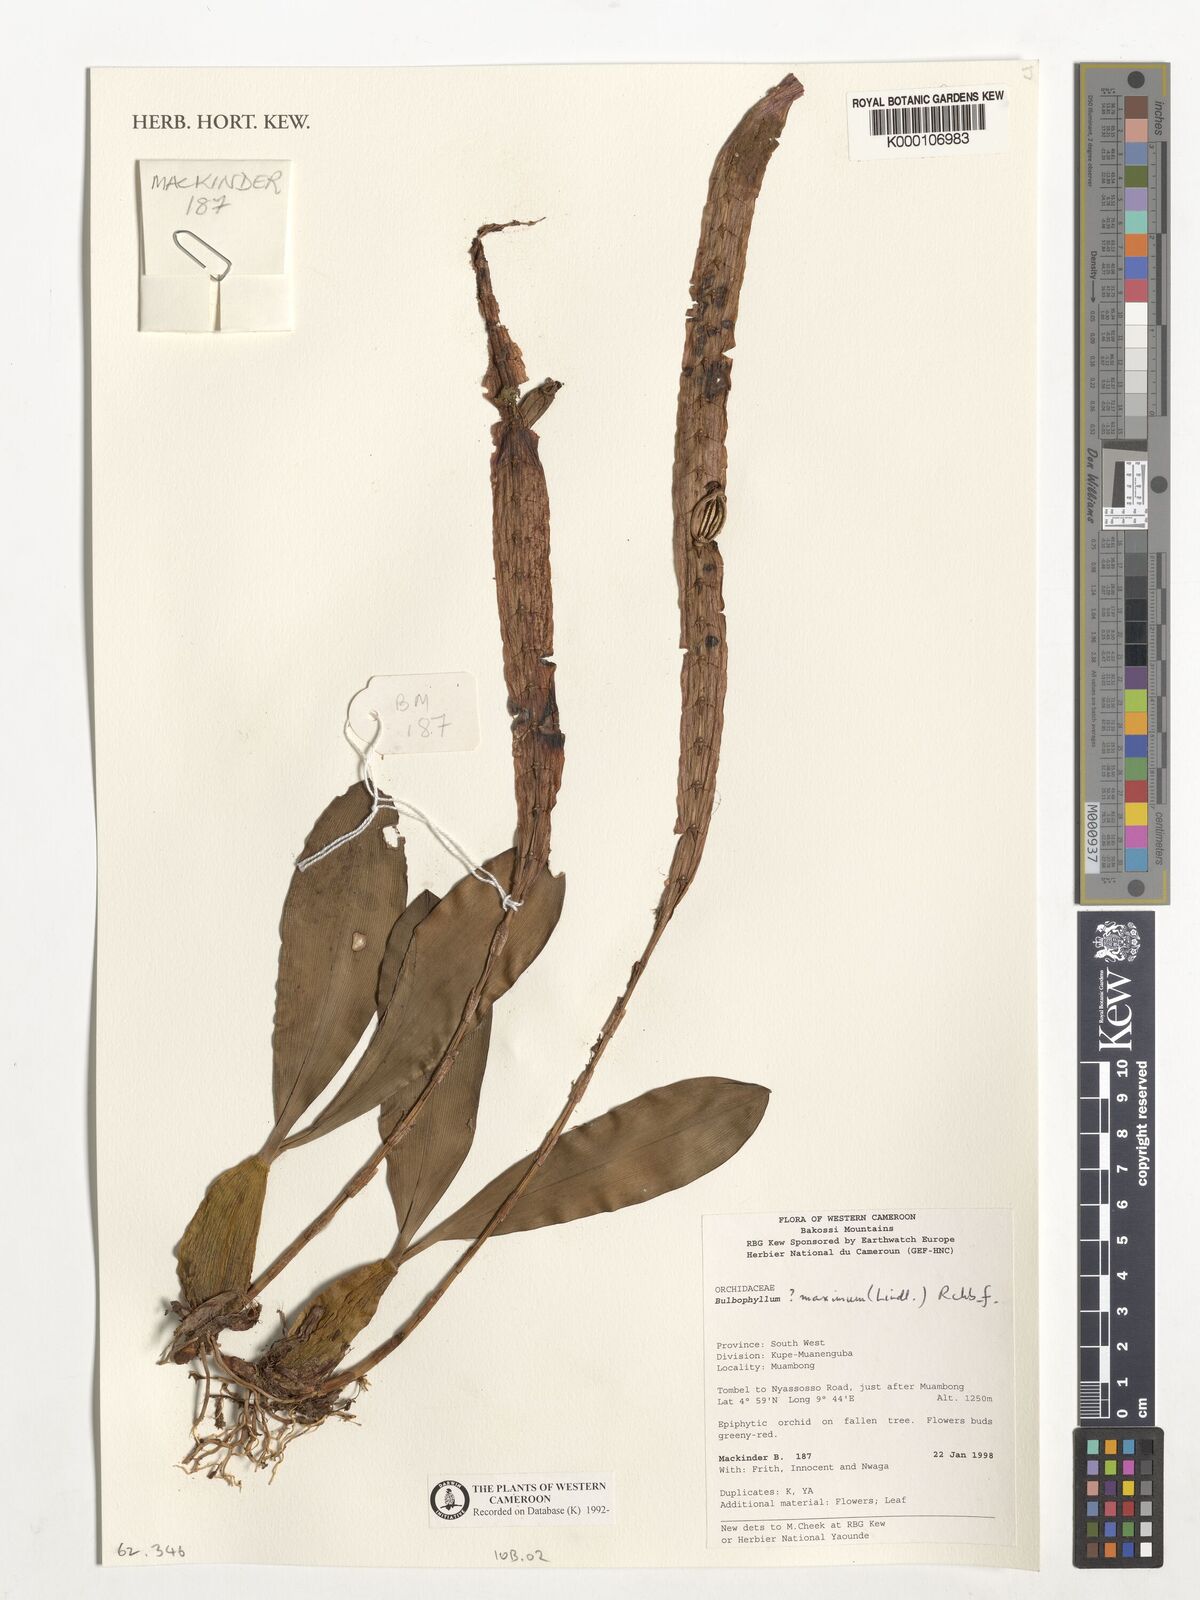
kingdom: Plantae
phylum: Tracheophyta
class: Liliopsida
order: Asparagales
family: Orchidaceae
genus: Bulbophyllum
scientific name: Bulbophyllum maximum
